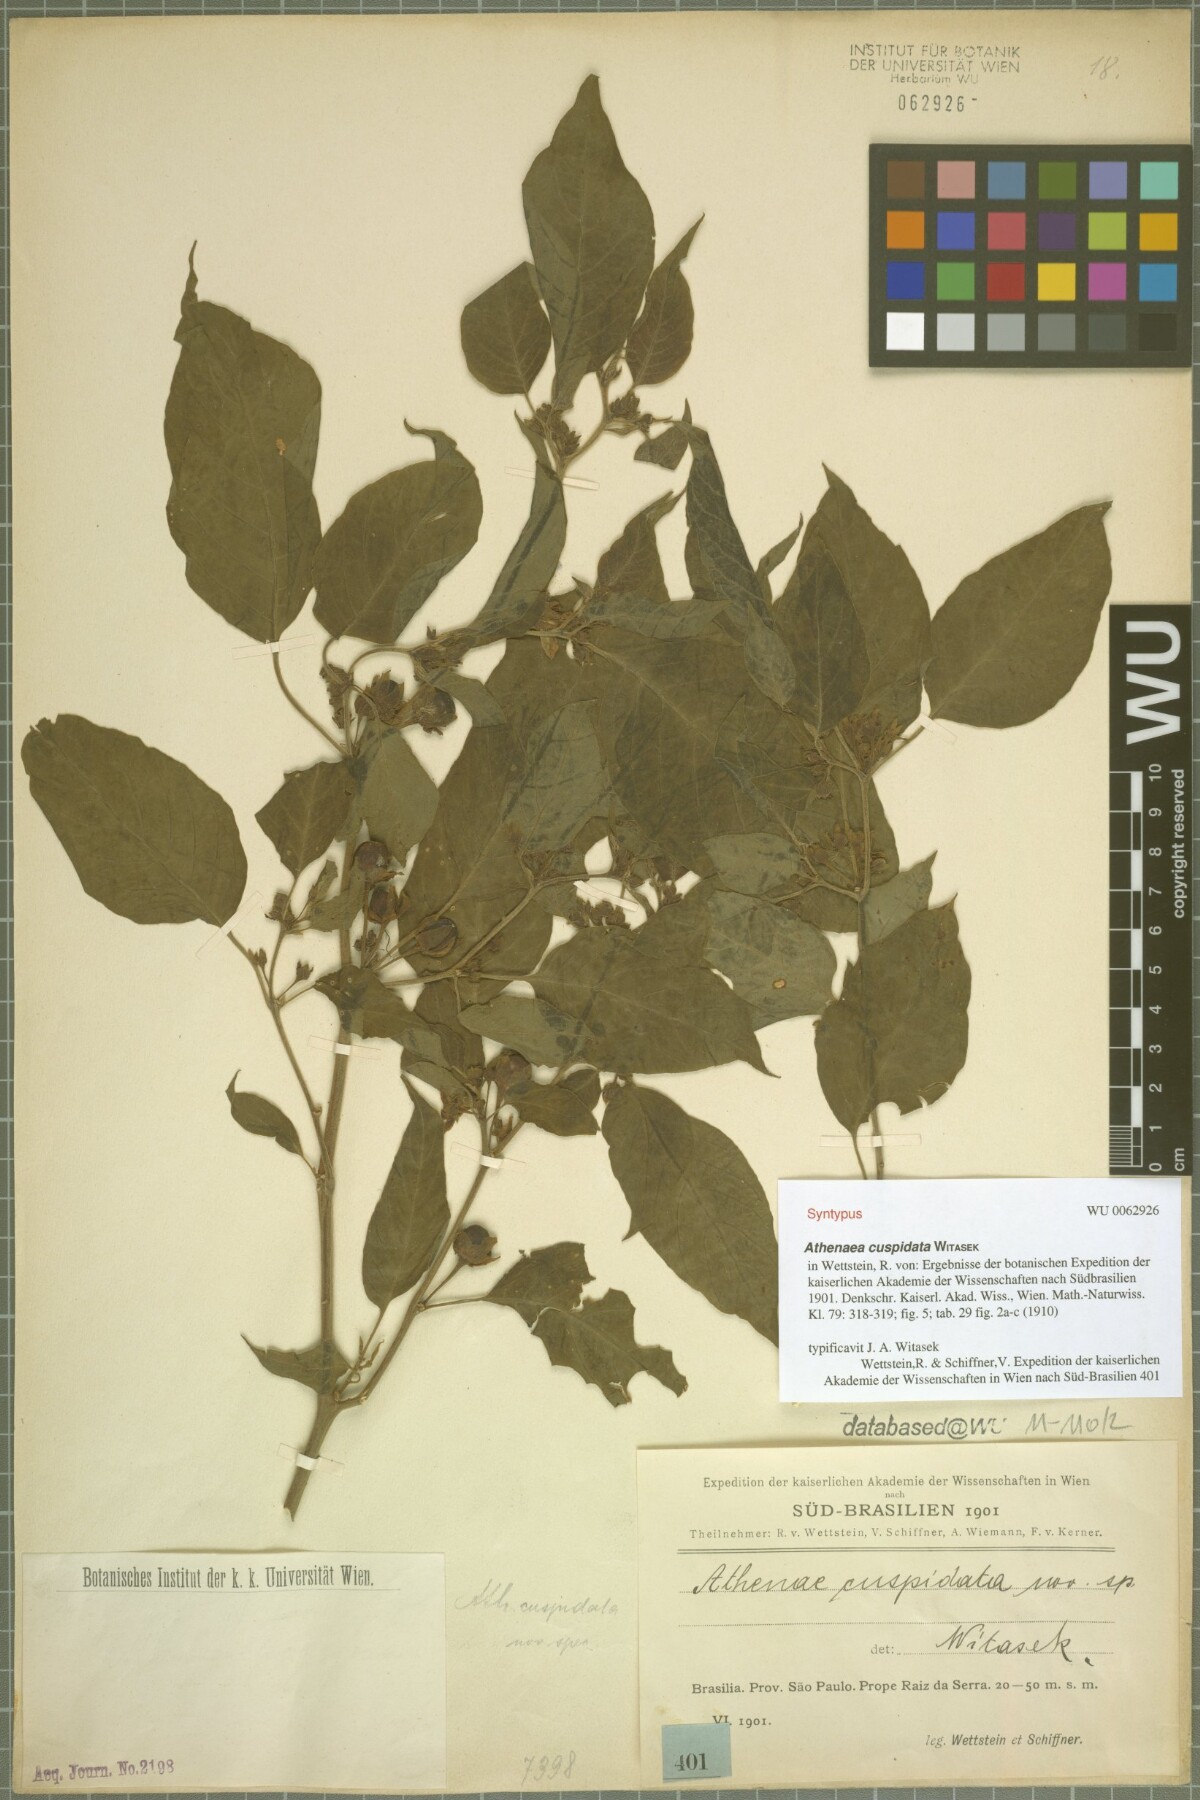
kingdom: Plantae
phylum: Tracheophyta
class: Magnoliopsida
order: Solanales
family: Solanaceae
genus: Athenaea
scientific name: Athenaea cuspidata
